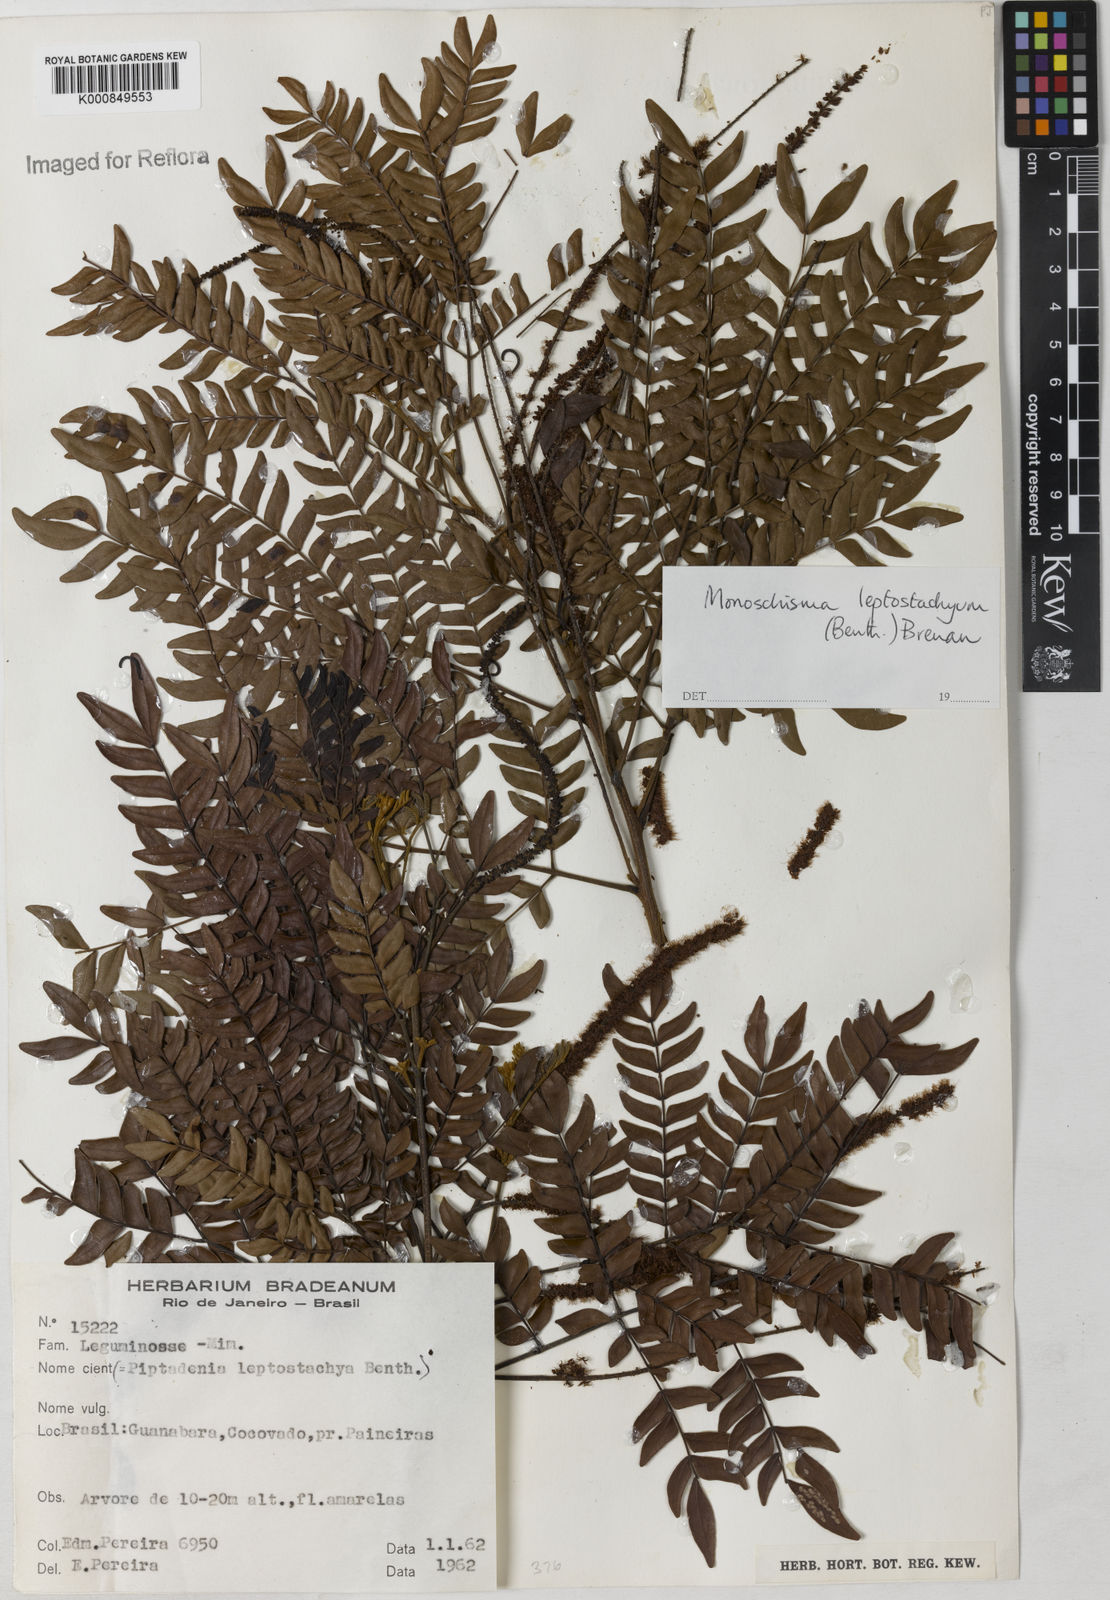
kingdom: Plantae
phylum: Tracheophyta
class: Magnoliopsida
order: Fabales
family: Fabaceae
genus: Pseudopiptadenia
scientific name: Pseudopiptadenia leptostachya
